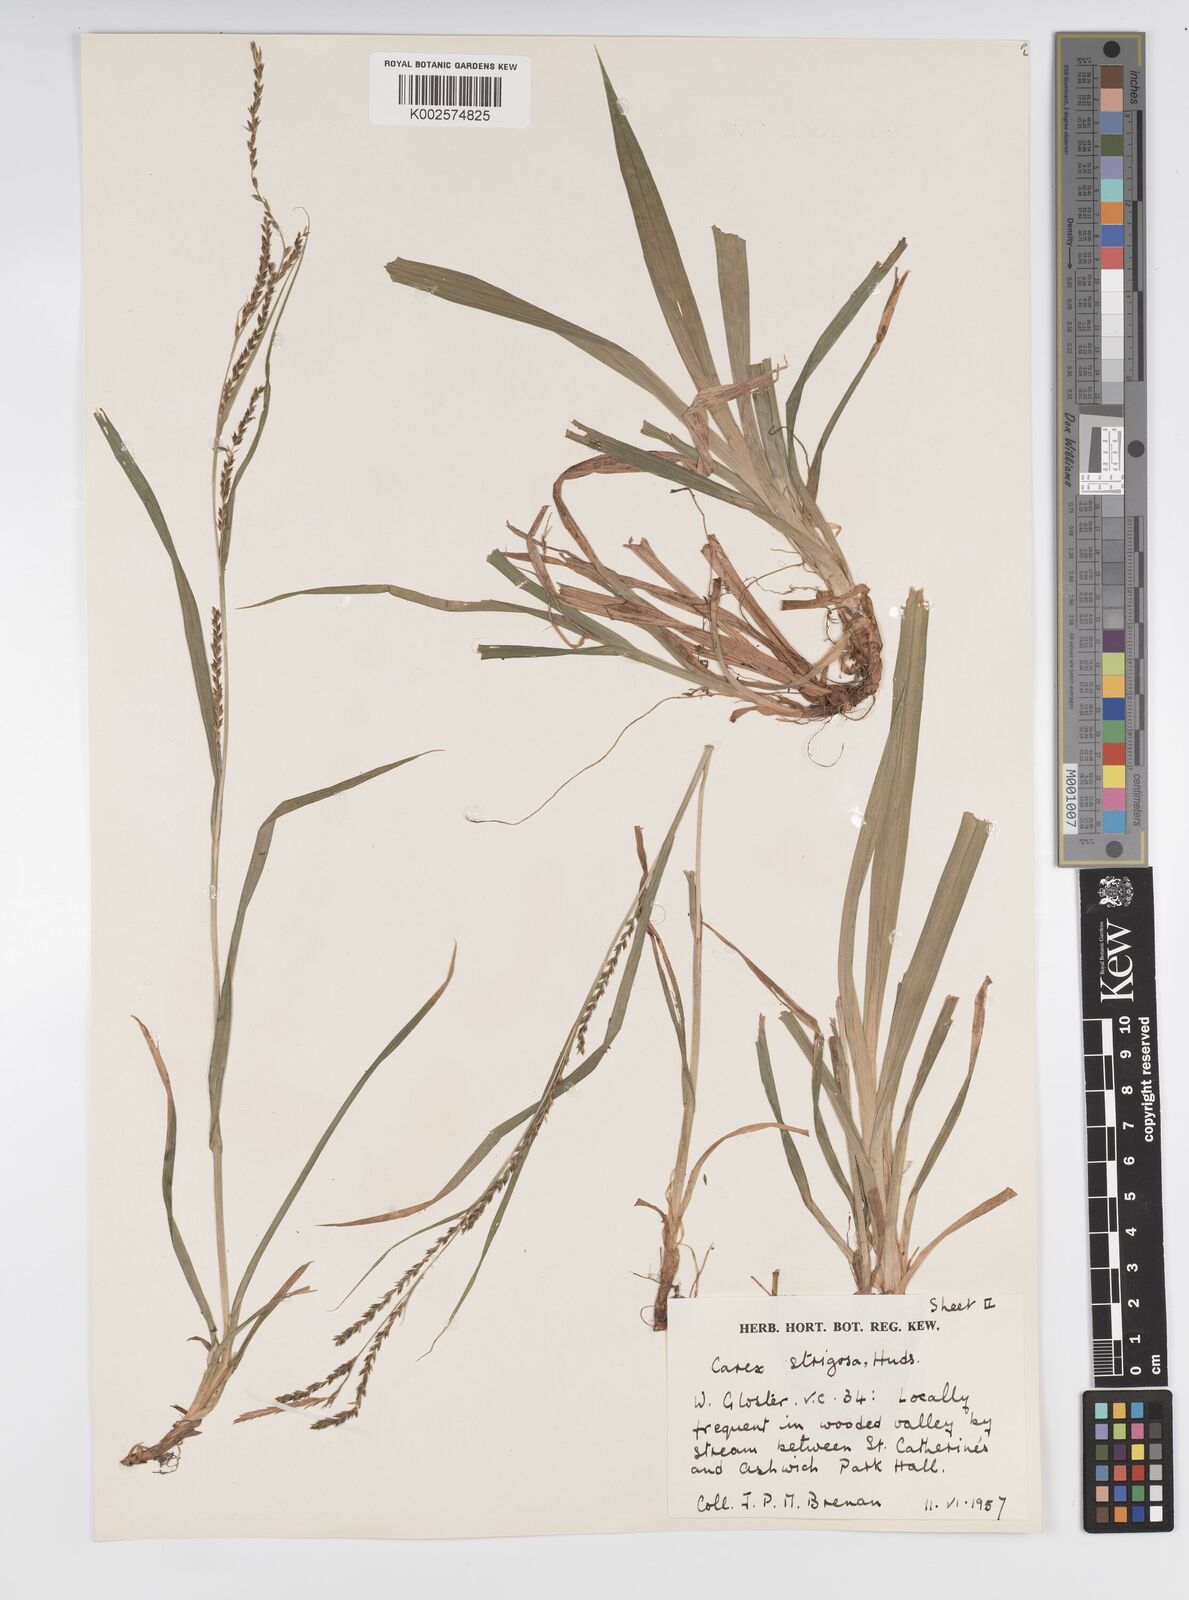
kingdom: Plantae
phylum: Tracheophyta
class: Liliopsida
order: Poales
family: Cyperaceae
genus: Carex
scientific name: Carex strigosa
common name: Thin-spiked wood-sedge
